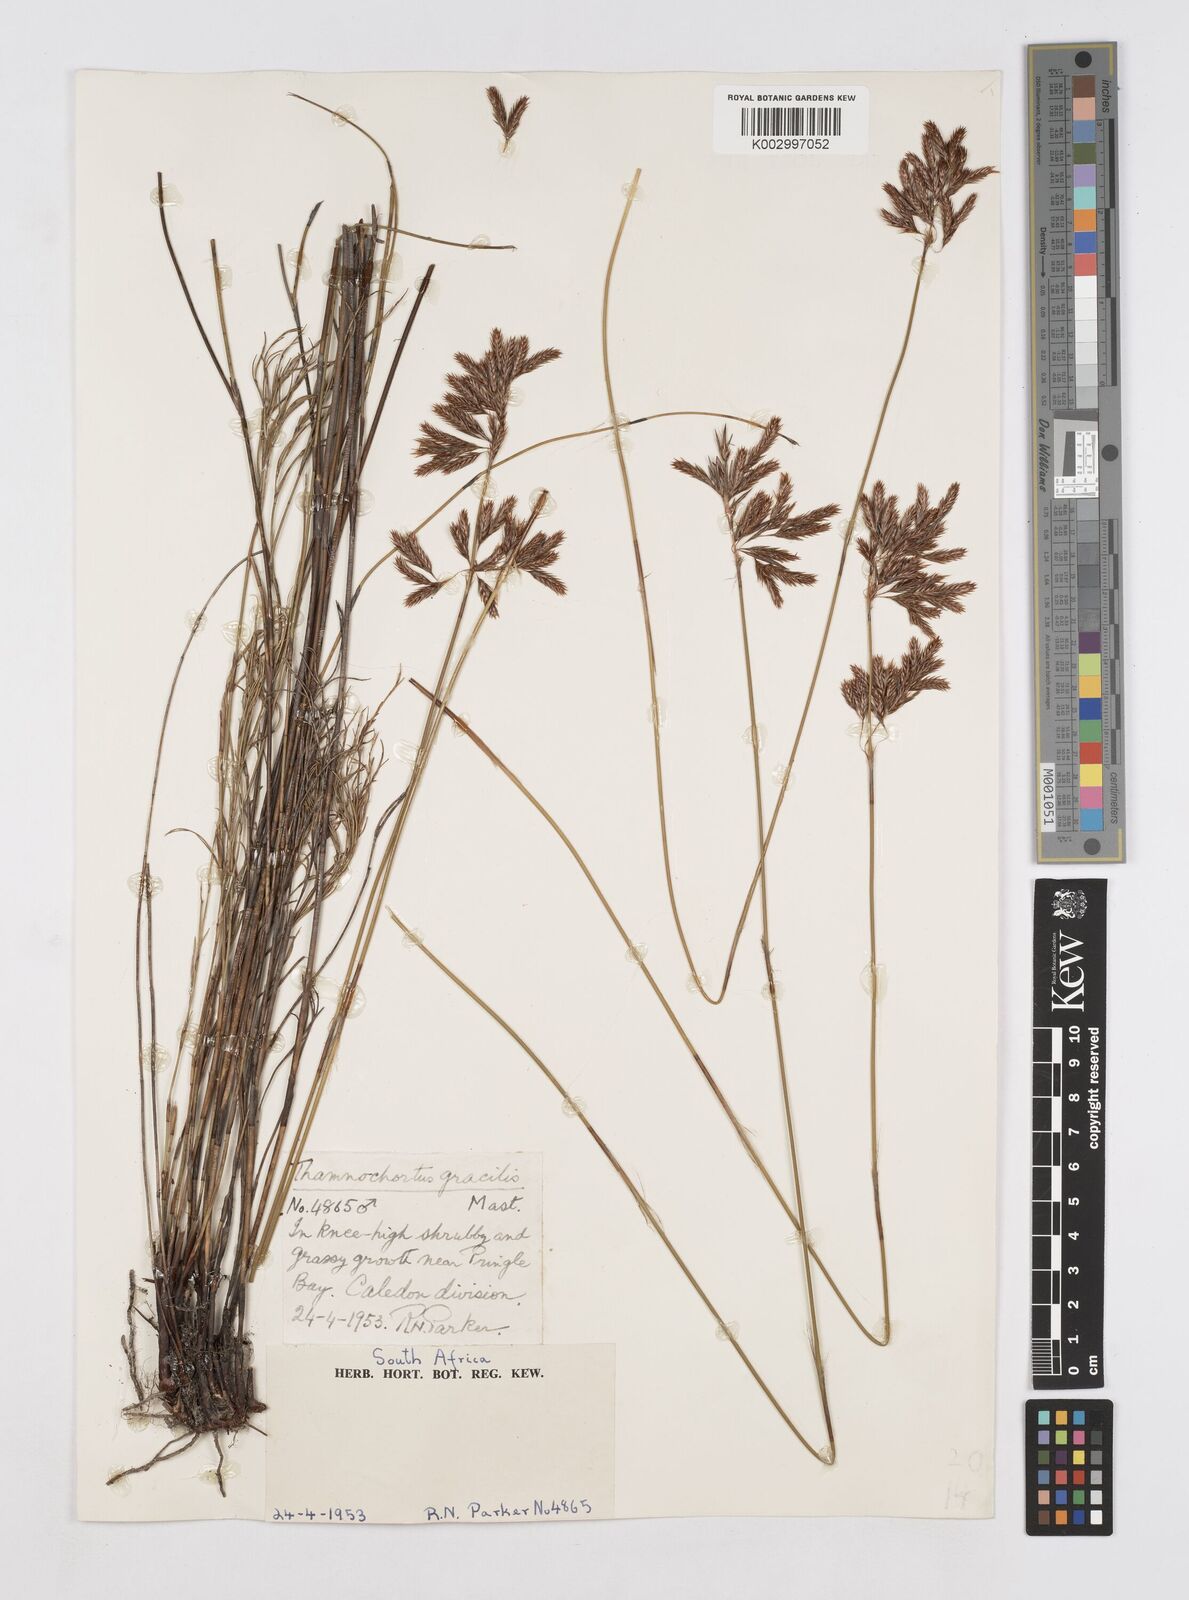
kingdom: Plantae
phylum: Tracheophyta
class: Liliopsida
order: Poales
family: Restionaceae
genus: Thamnochortus
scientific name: Thamnochortus gracilis
